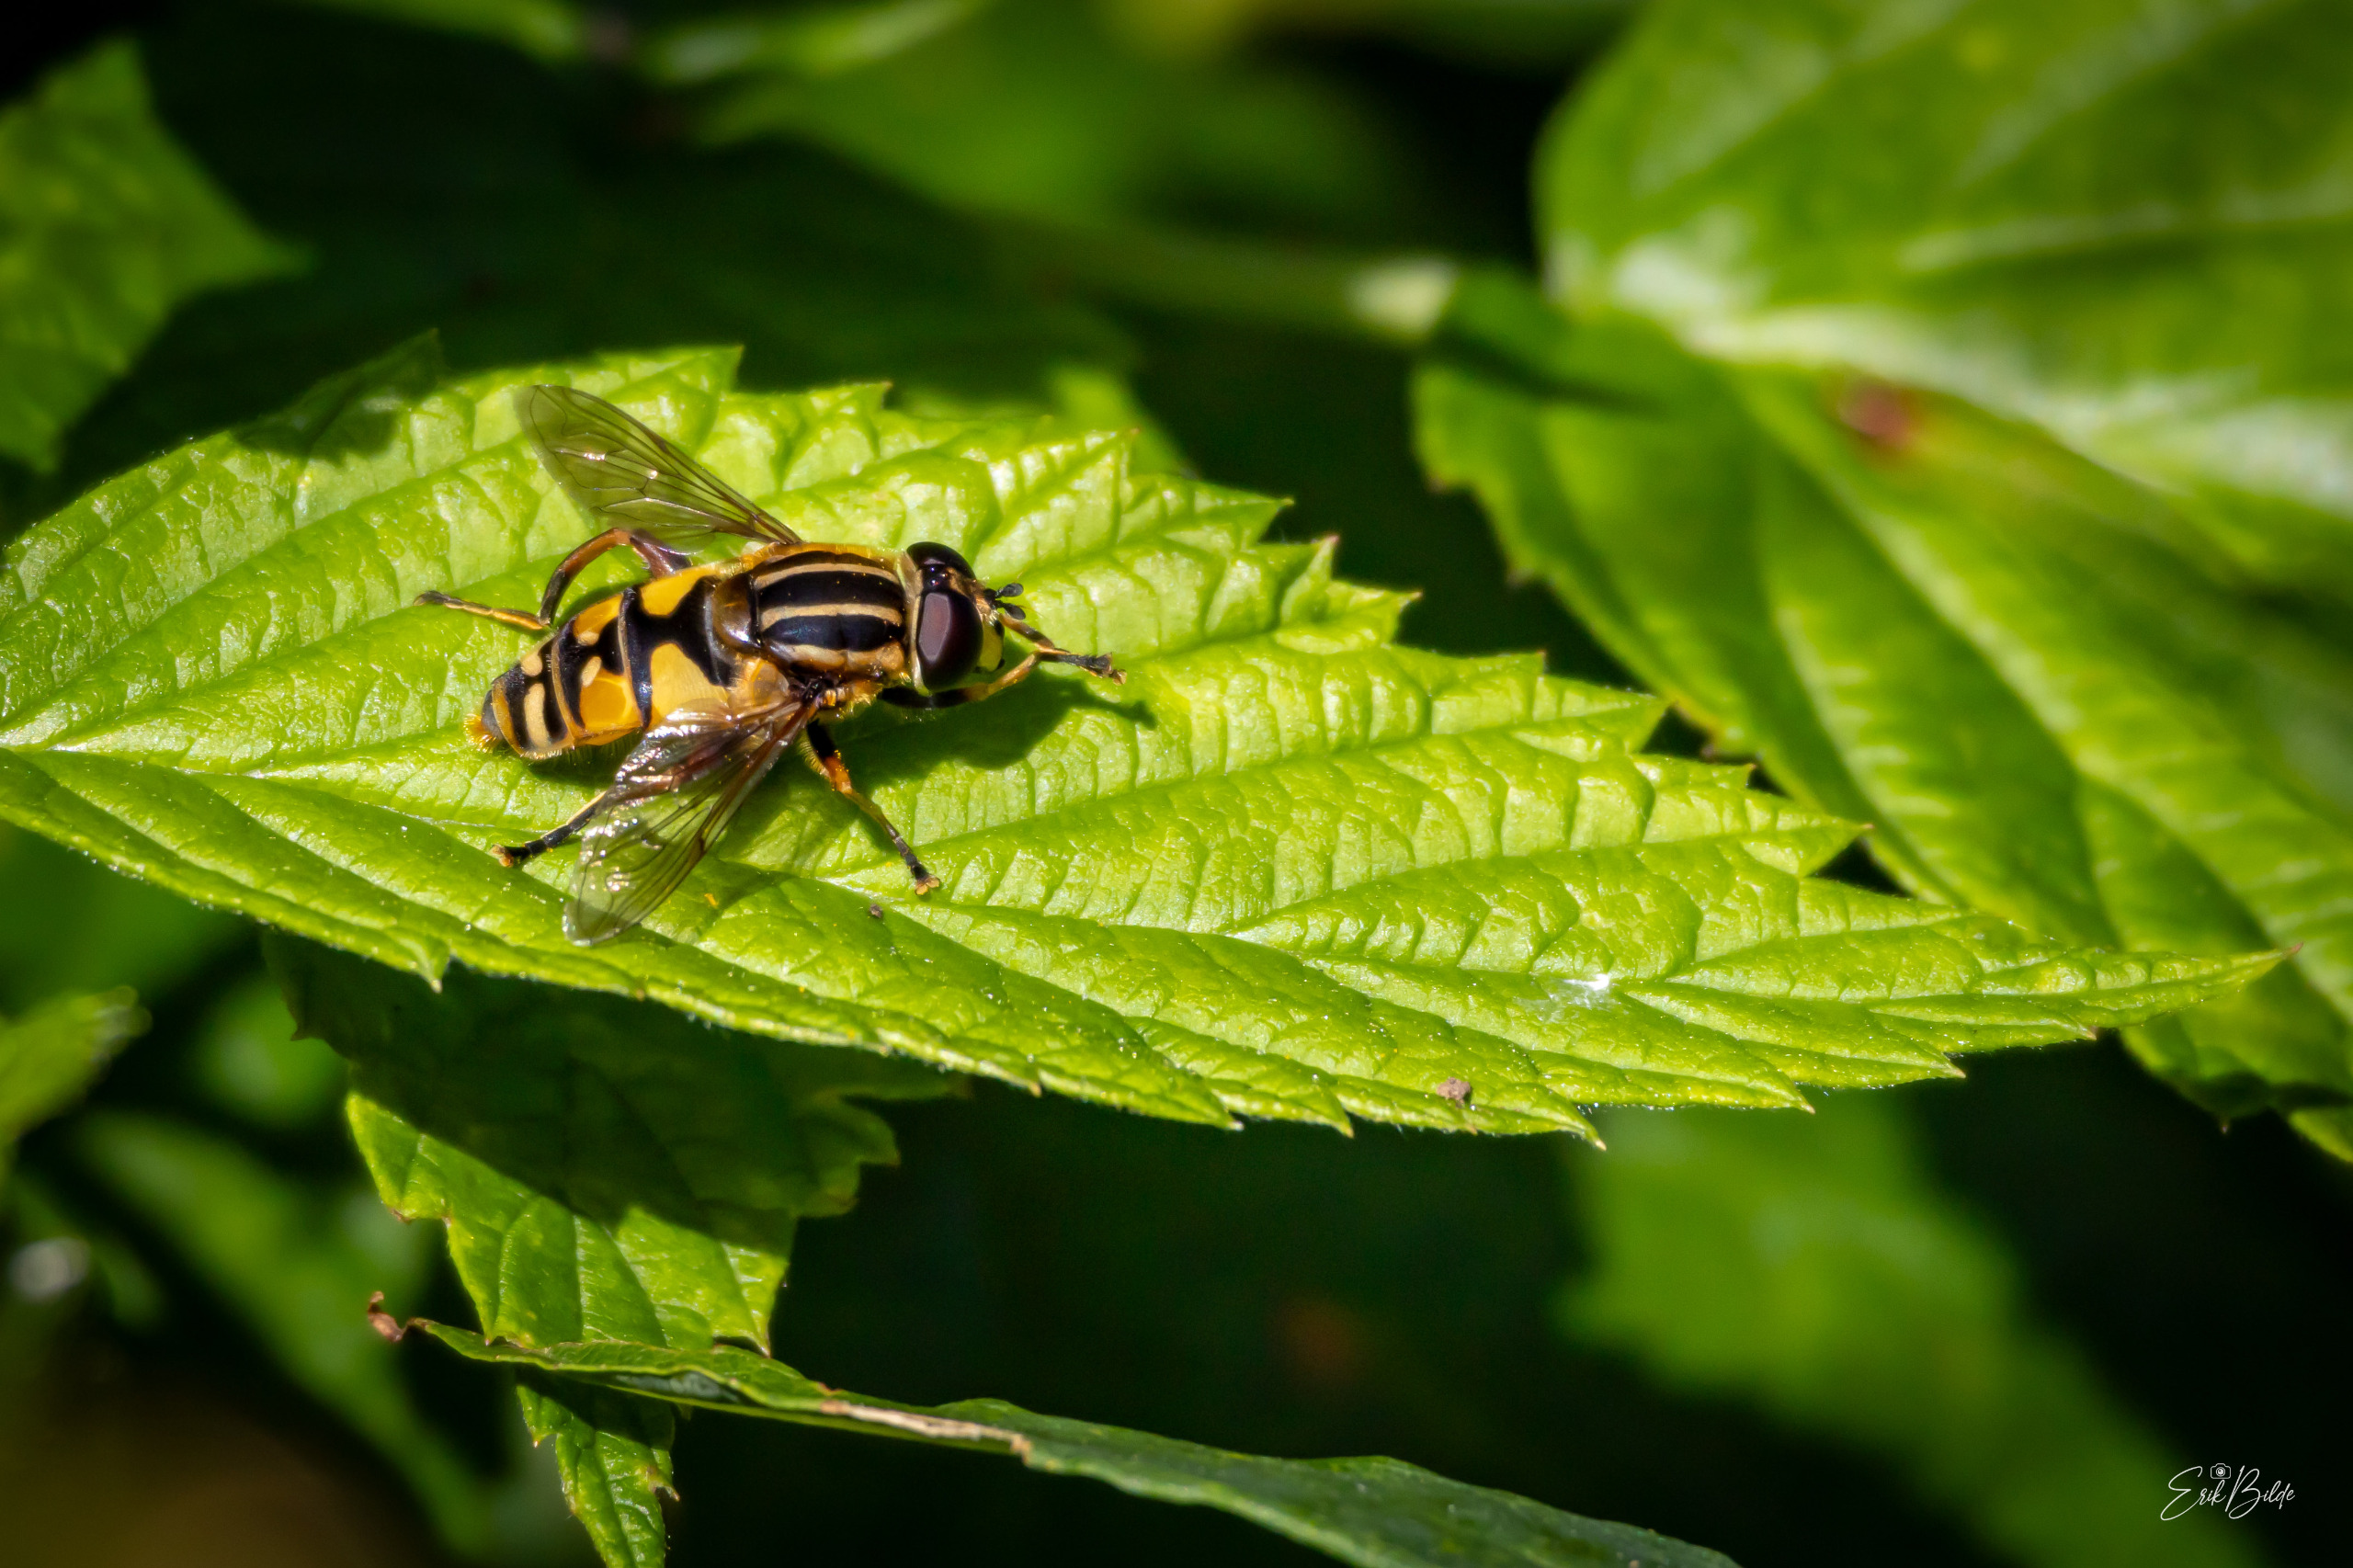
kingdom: Animalia
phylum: Arthropoda
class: Insecta
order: Diptera
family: Syrphidae
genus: Helophilus
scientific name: Helophilus pendulus
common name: Almindelig sumpsvirreflue
